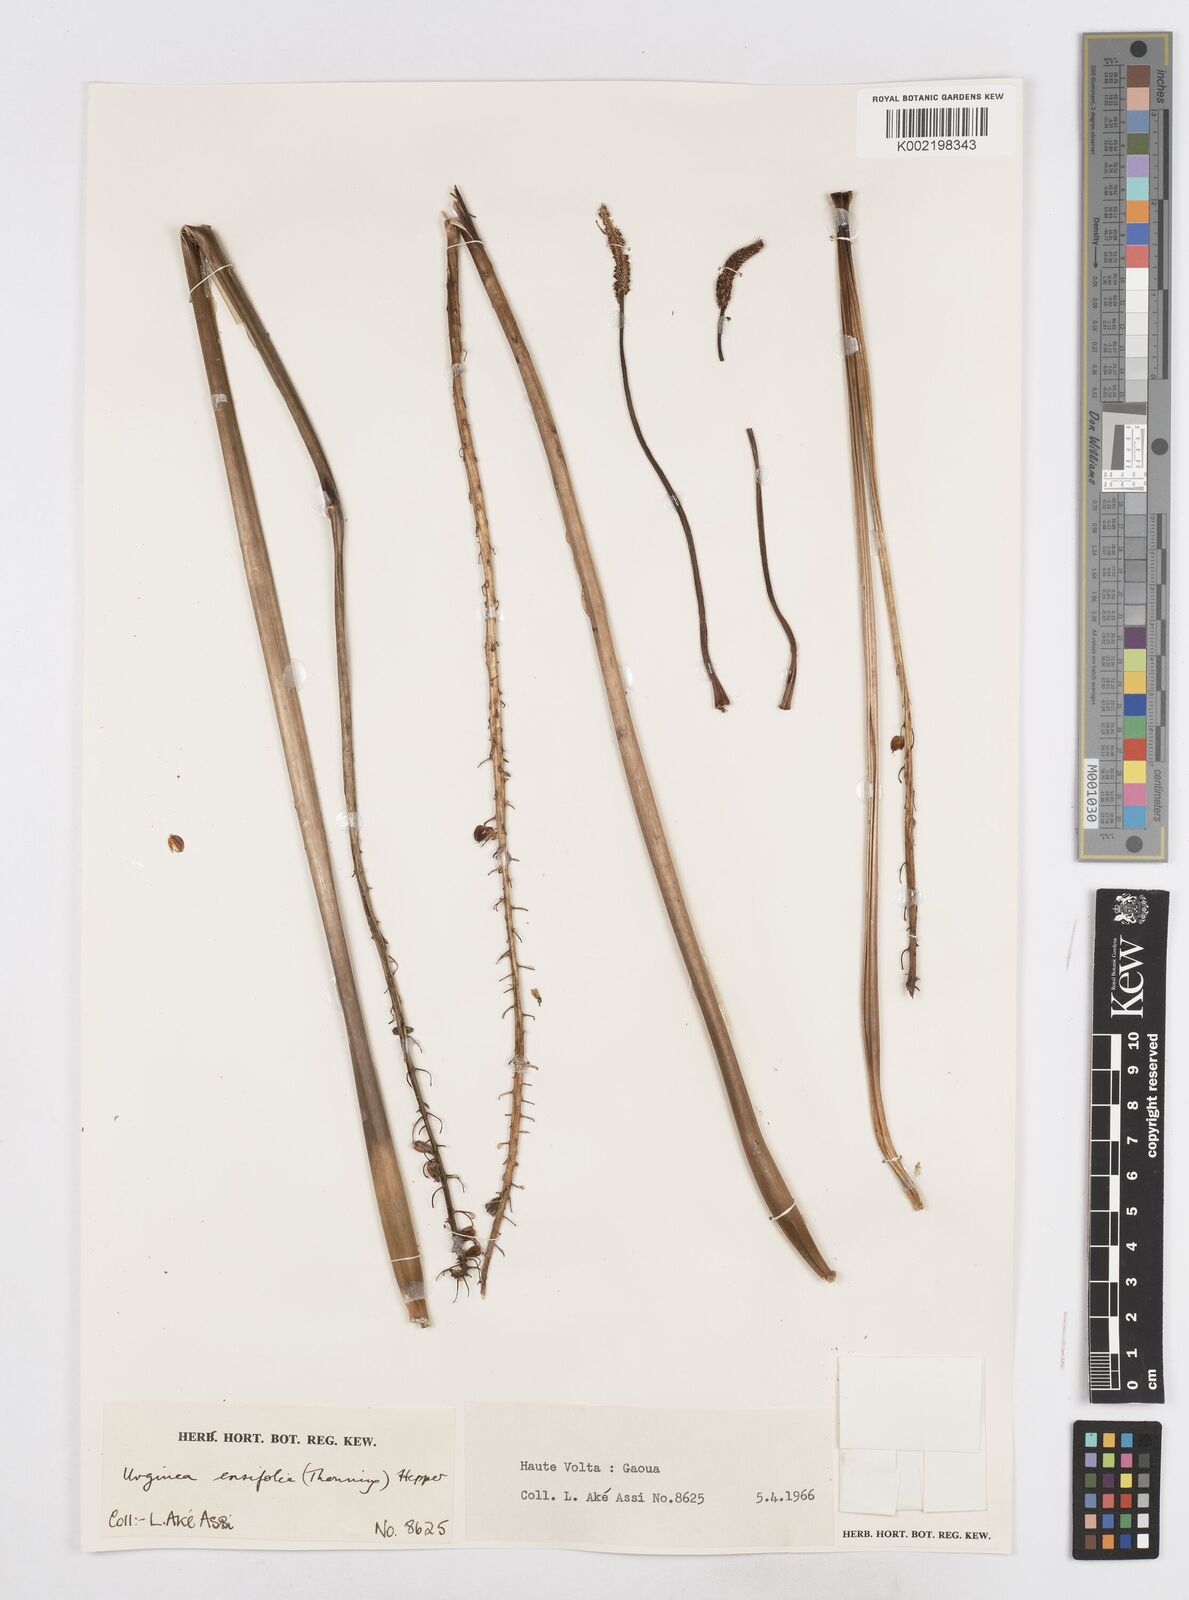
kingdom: Plantae
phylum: Tracheophyta
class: Liliopsida
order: Asparagales
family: Asparagaceae
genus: Ledebouria
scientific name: Ledebouria ensifolia
